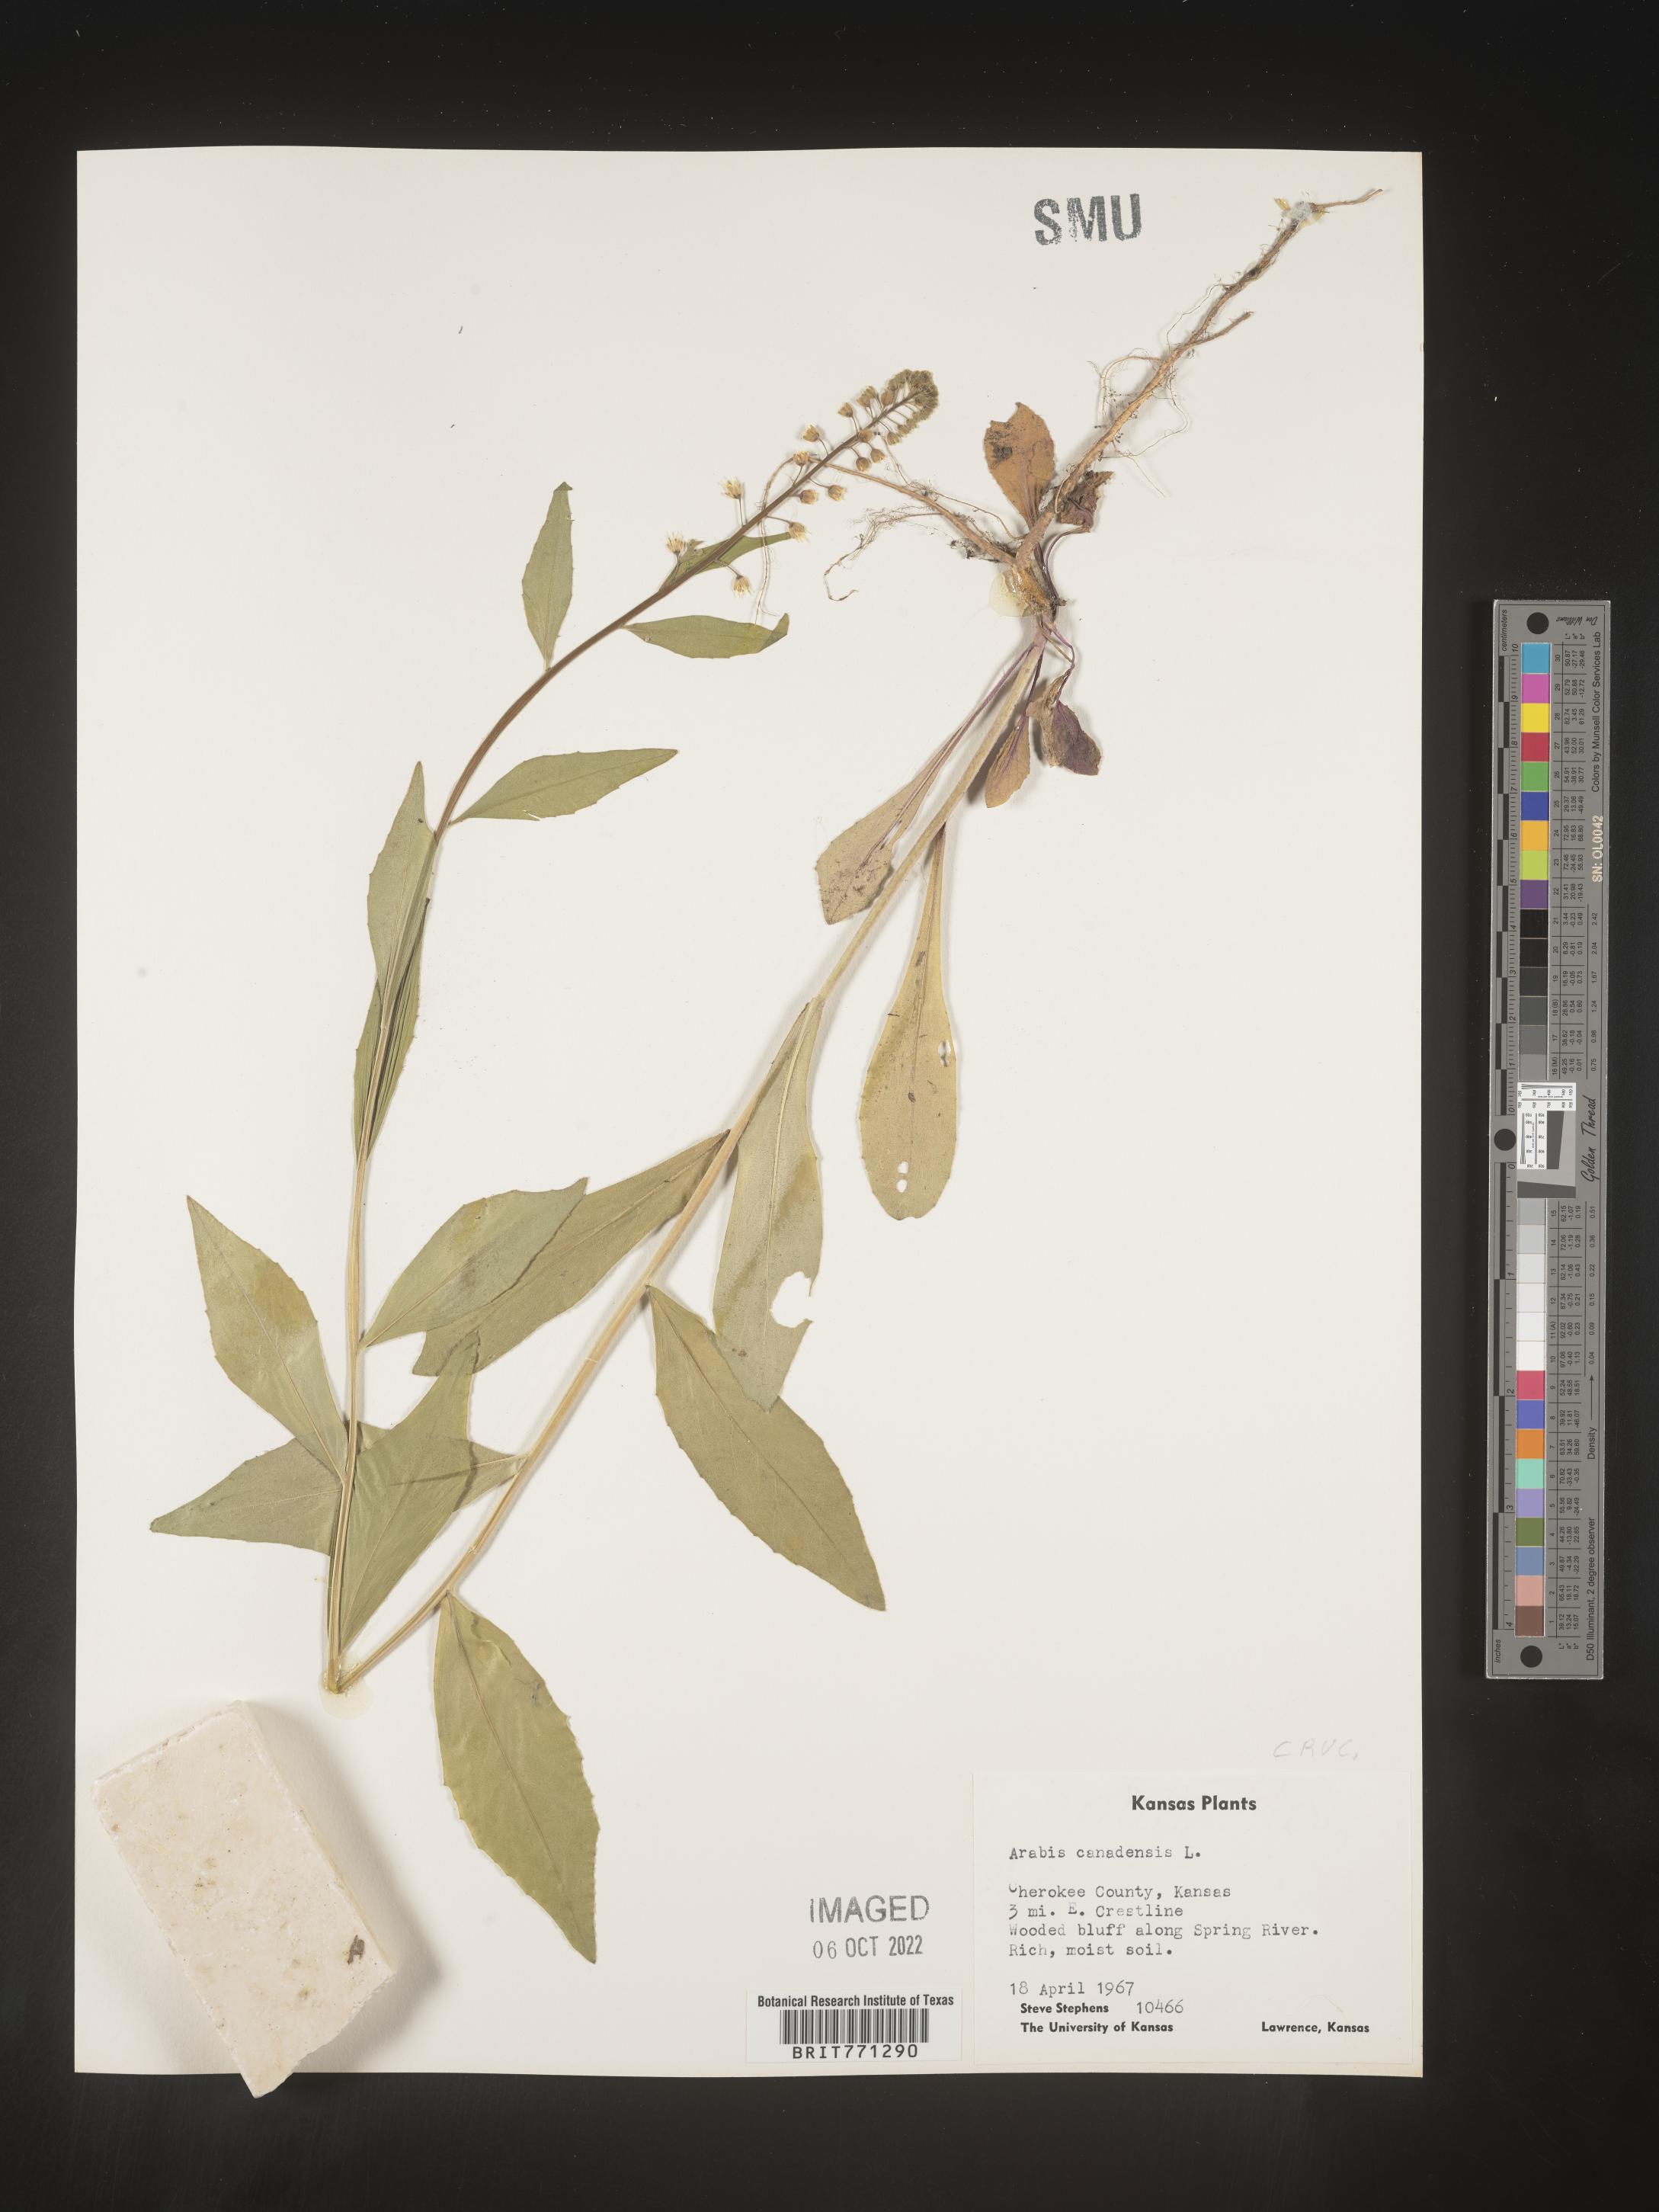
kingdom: Plantae
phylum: Tracheophyta
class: Magnoliopsida
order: Brassicales
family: Brassicaceae
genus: Borodinia
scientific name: Borodinia canadensis
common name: Sicklepod
